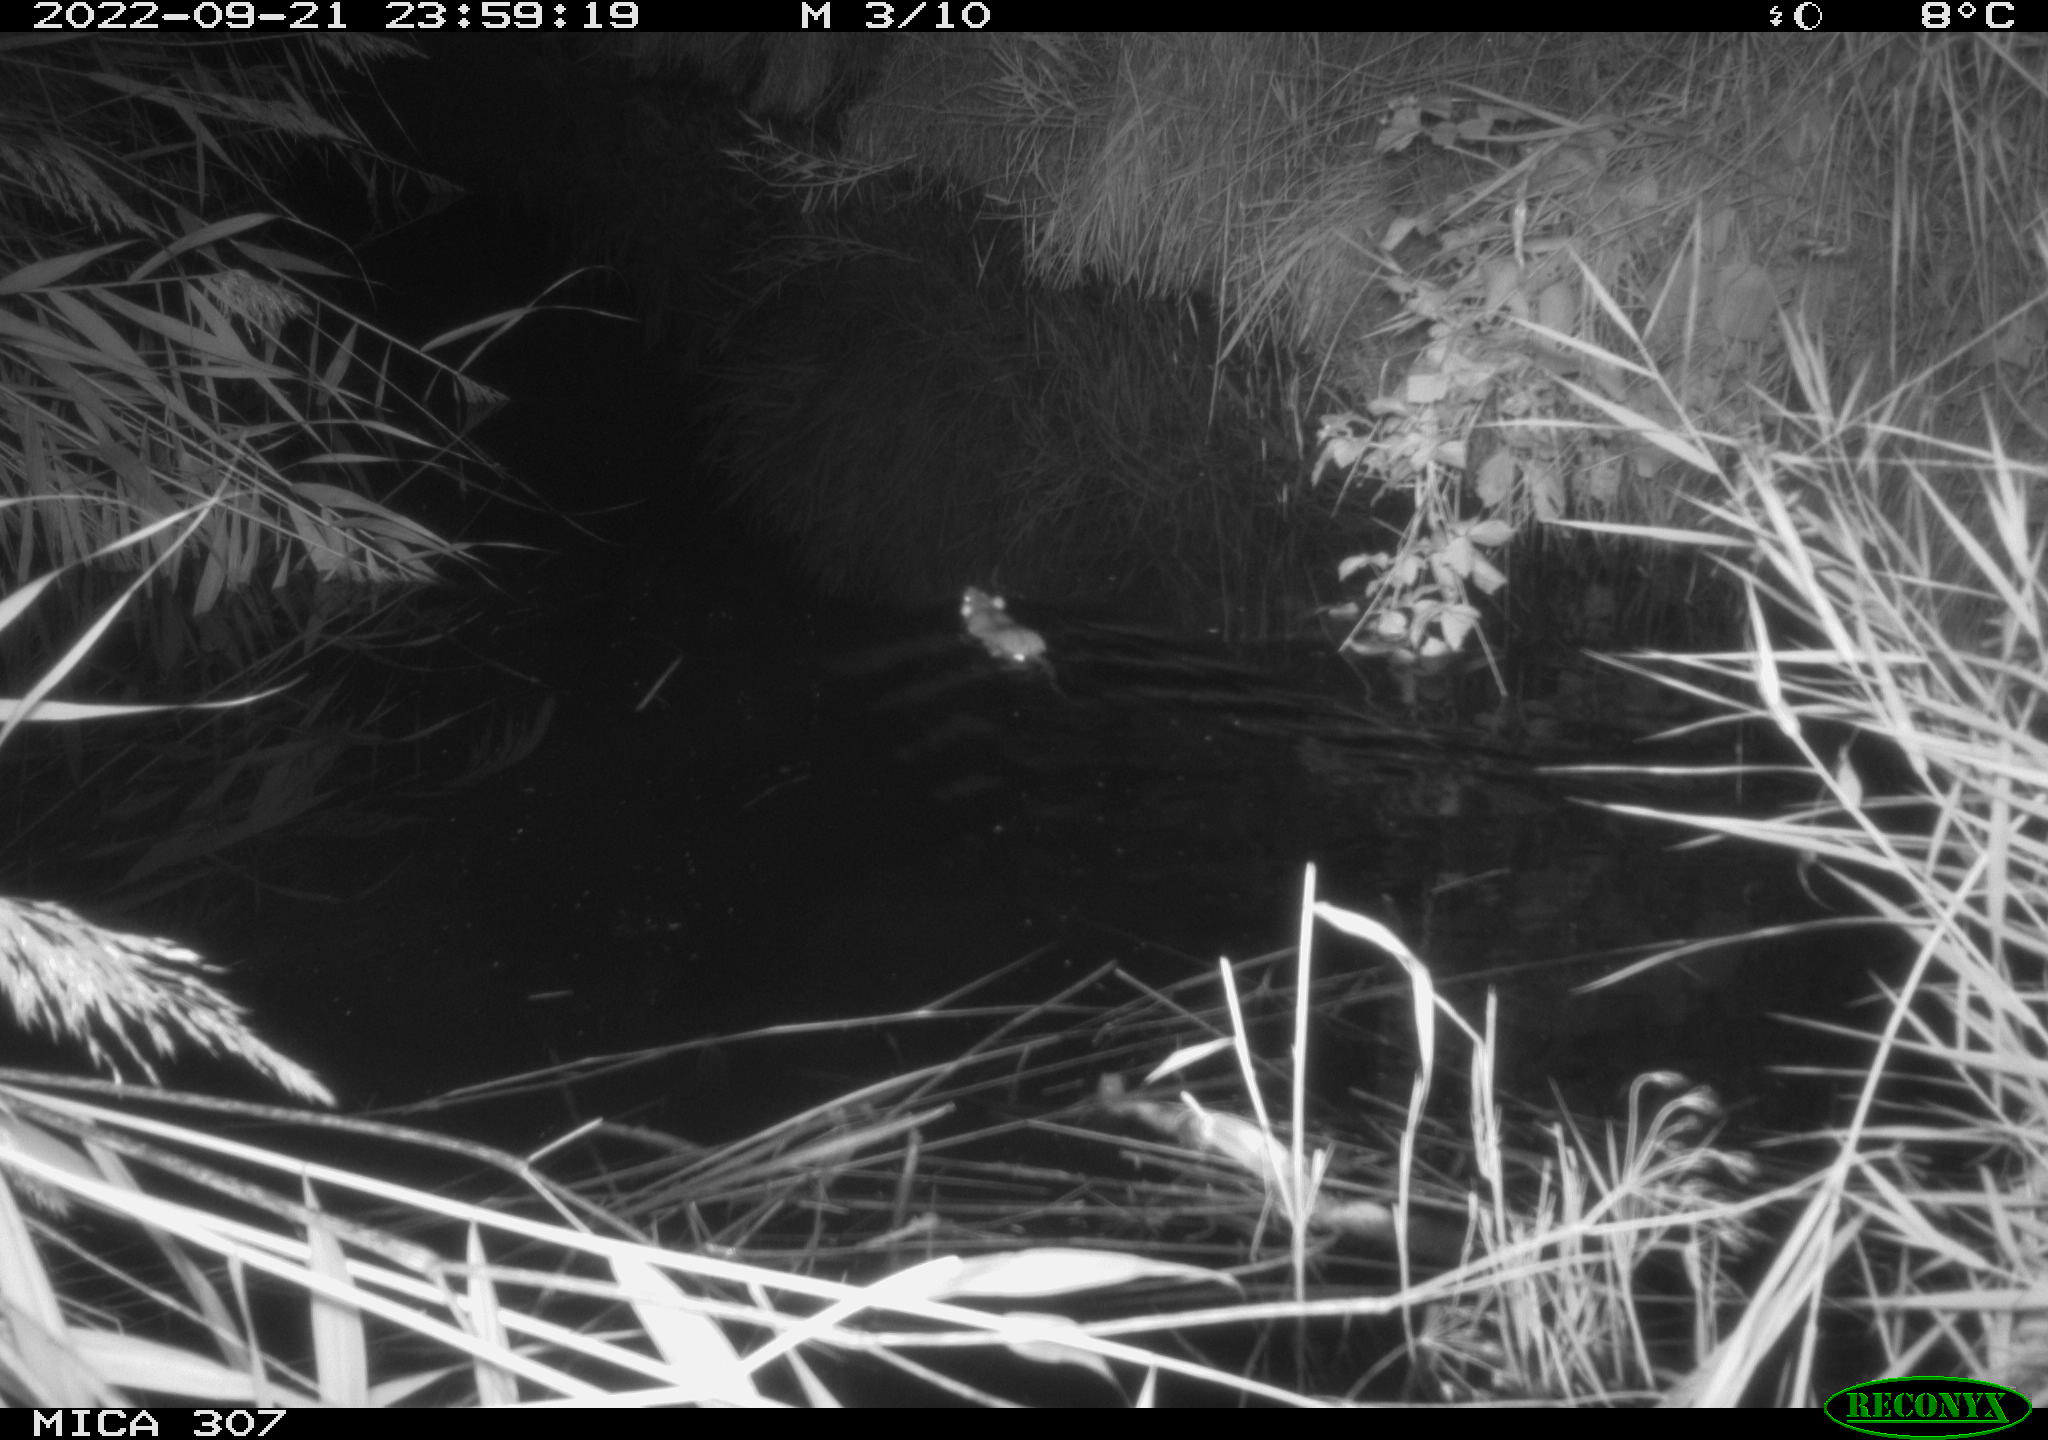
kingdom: Animalia
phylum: Chordata
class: Mammalia
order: Rodentia
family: Muridae
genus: Rattus
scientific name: Rattus norvegicus
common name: Brown rat
